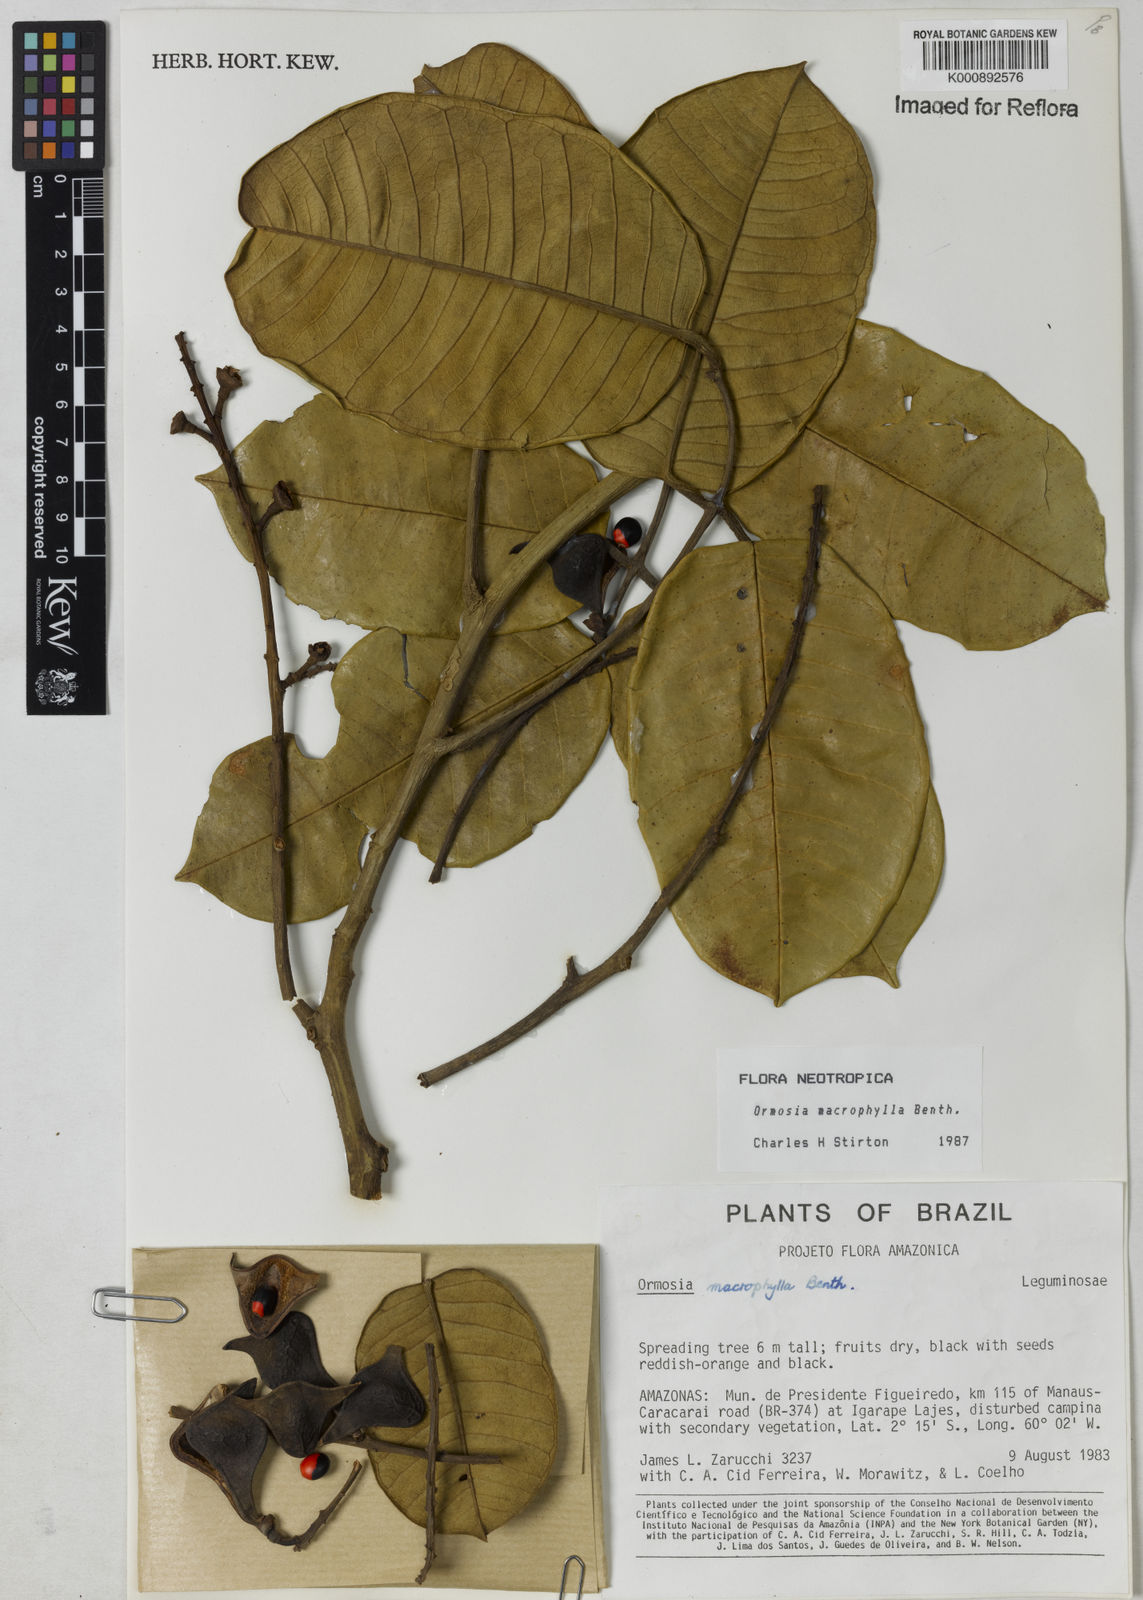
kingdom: Plantae
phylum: Tracheophyta
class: Magnoliopsida
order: Fabales
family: Fabaceae
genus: Ormosia
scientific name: Ormosia macrophylla
